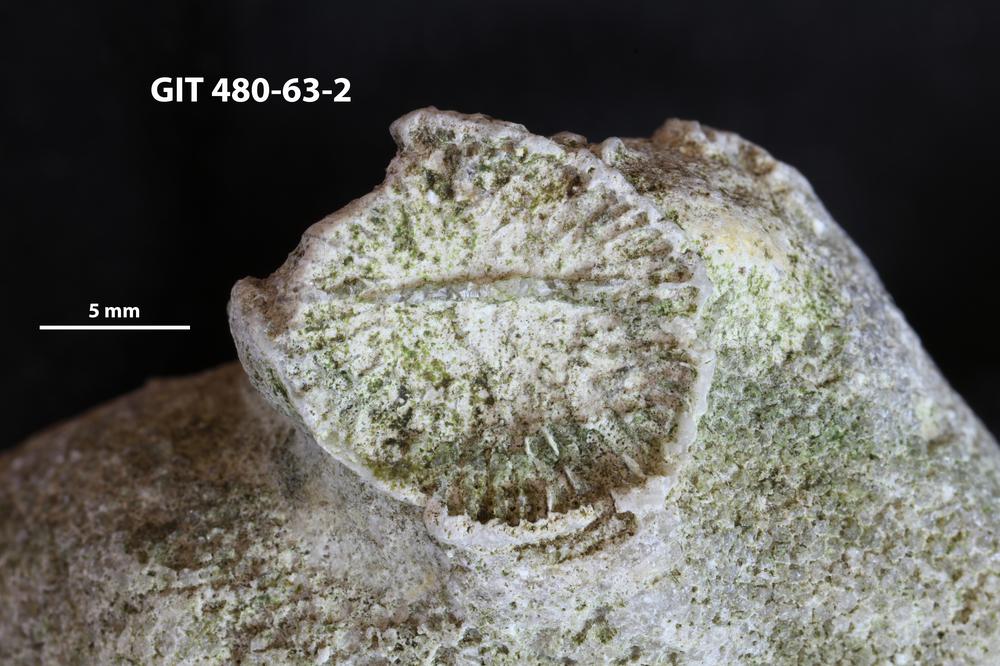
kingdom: Animalia
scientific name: Animalia
